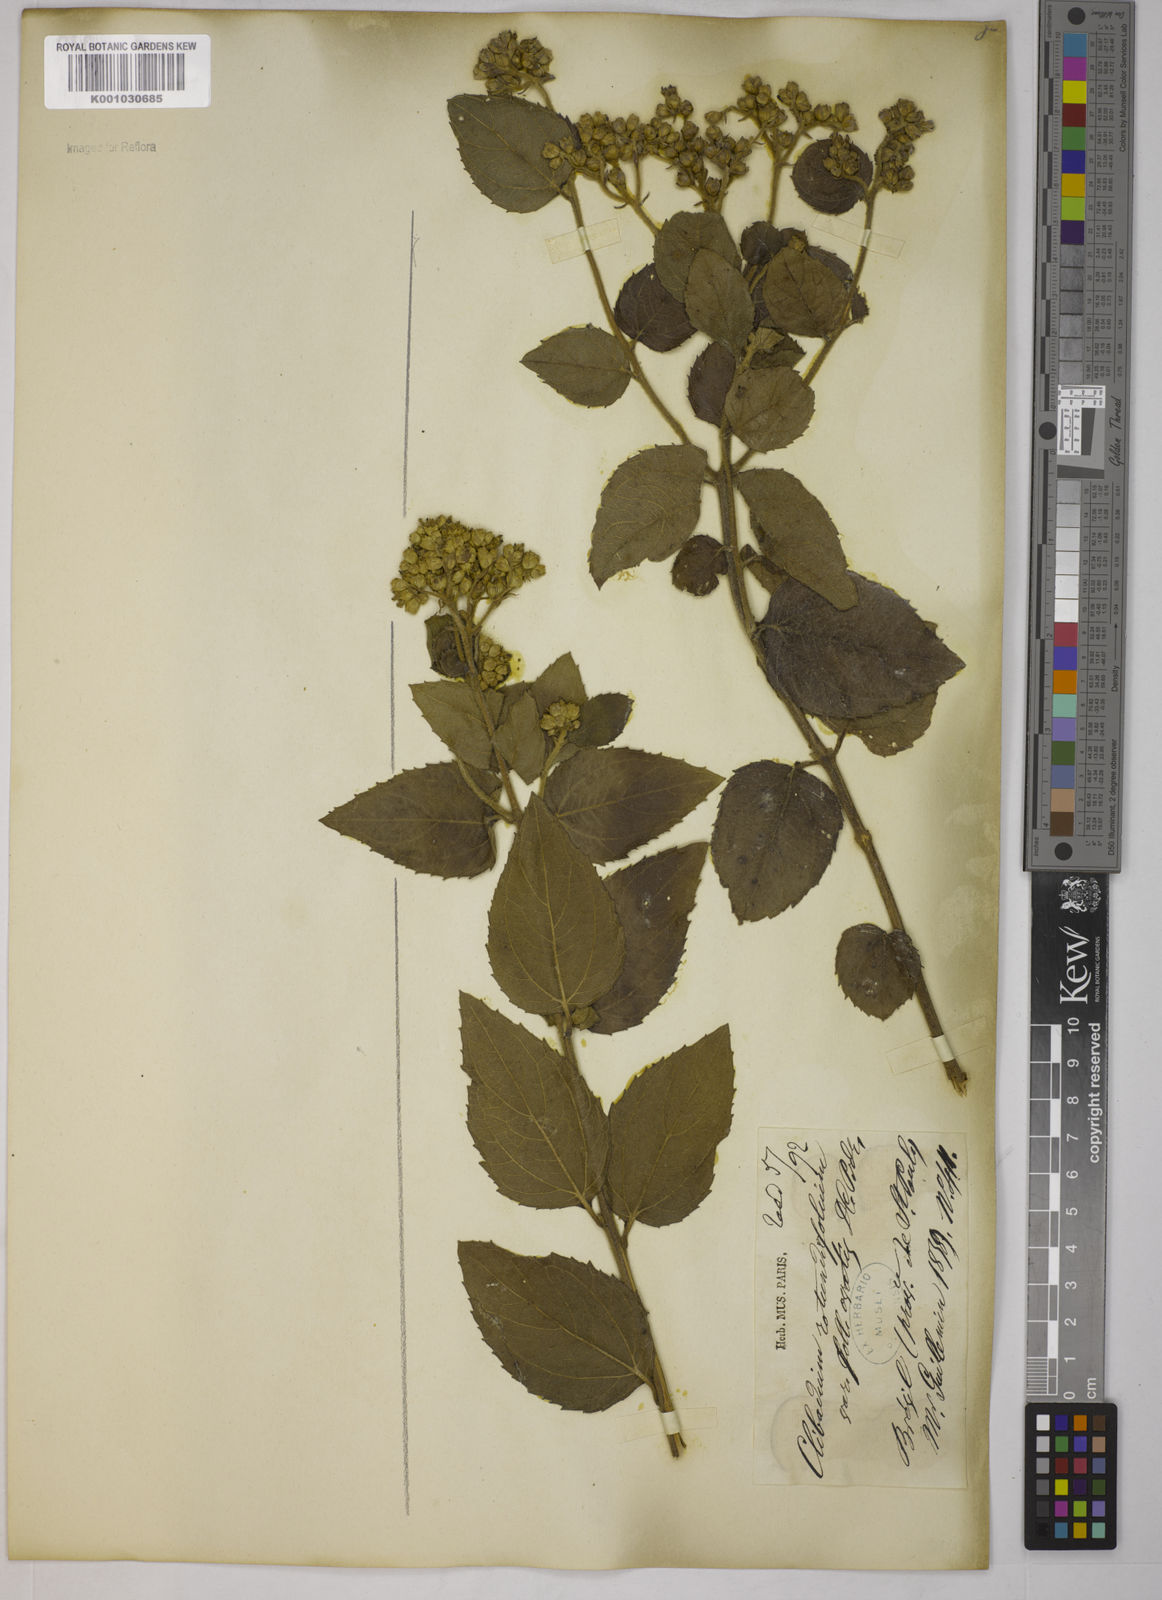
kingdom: Plantae
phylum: Tracheophyta
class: Magnoliopsida
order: Asterales
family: Asteraceae
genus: Clibadium
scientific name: Clibadium armanii
